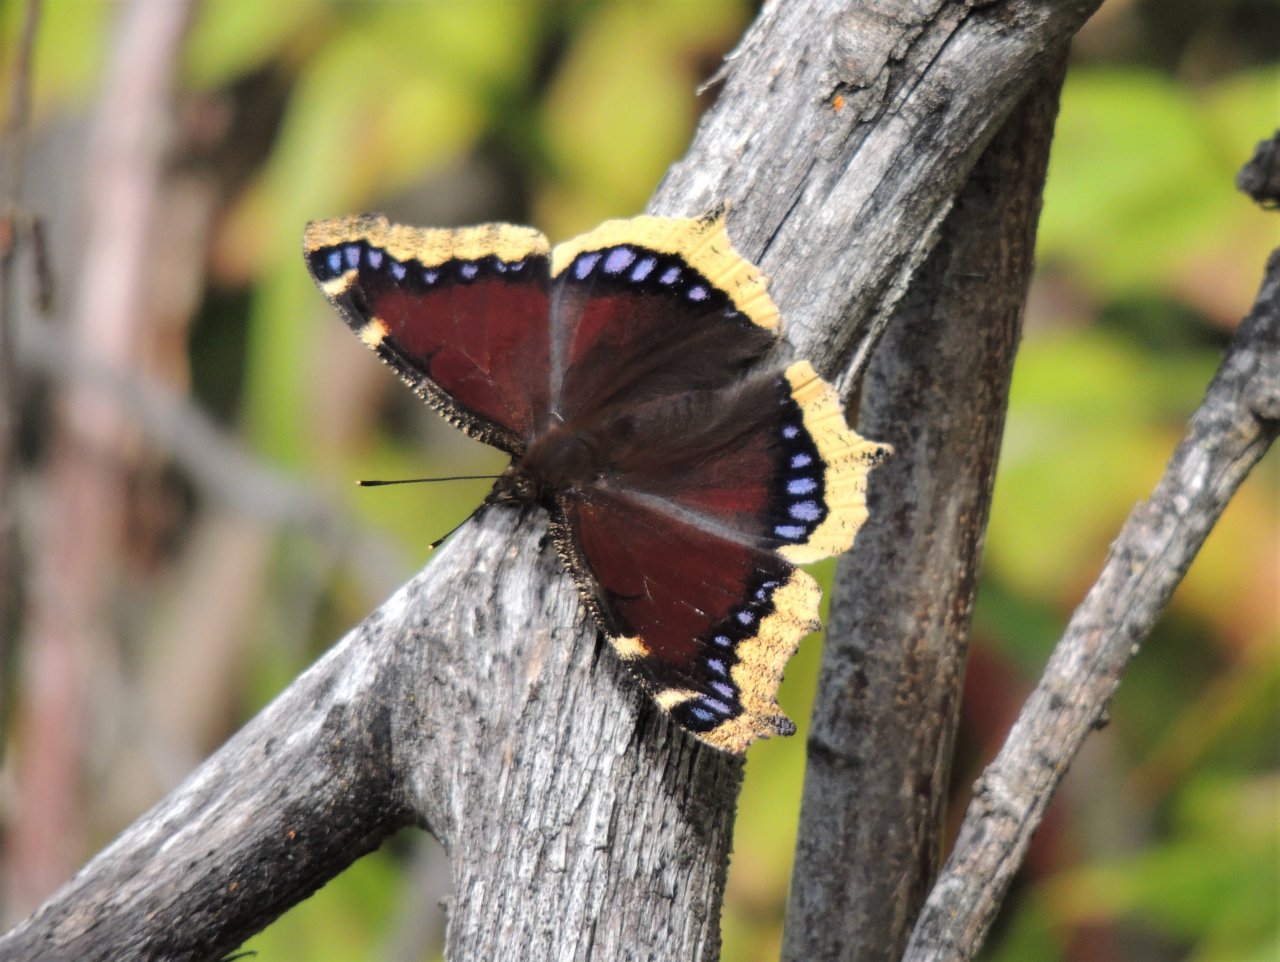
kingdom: Animalia
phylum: Arthropoda
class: Insecta
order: Lepidoptera
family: Nymphalidae
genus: Nymphalis
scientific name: Nymphalis antiopa
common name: Mourning Cloak
